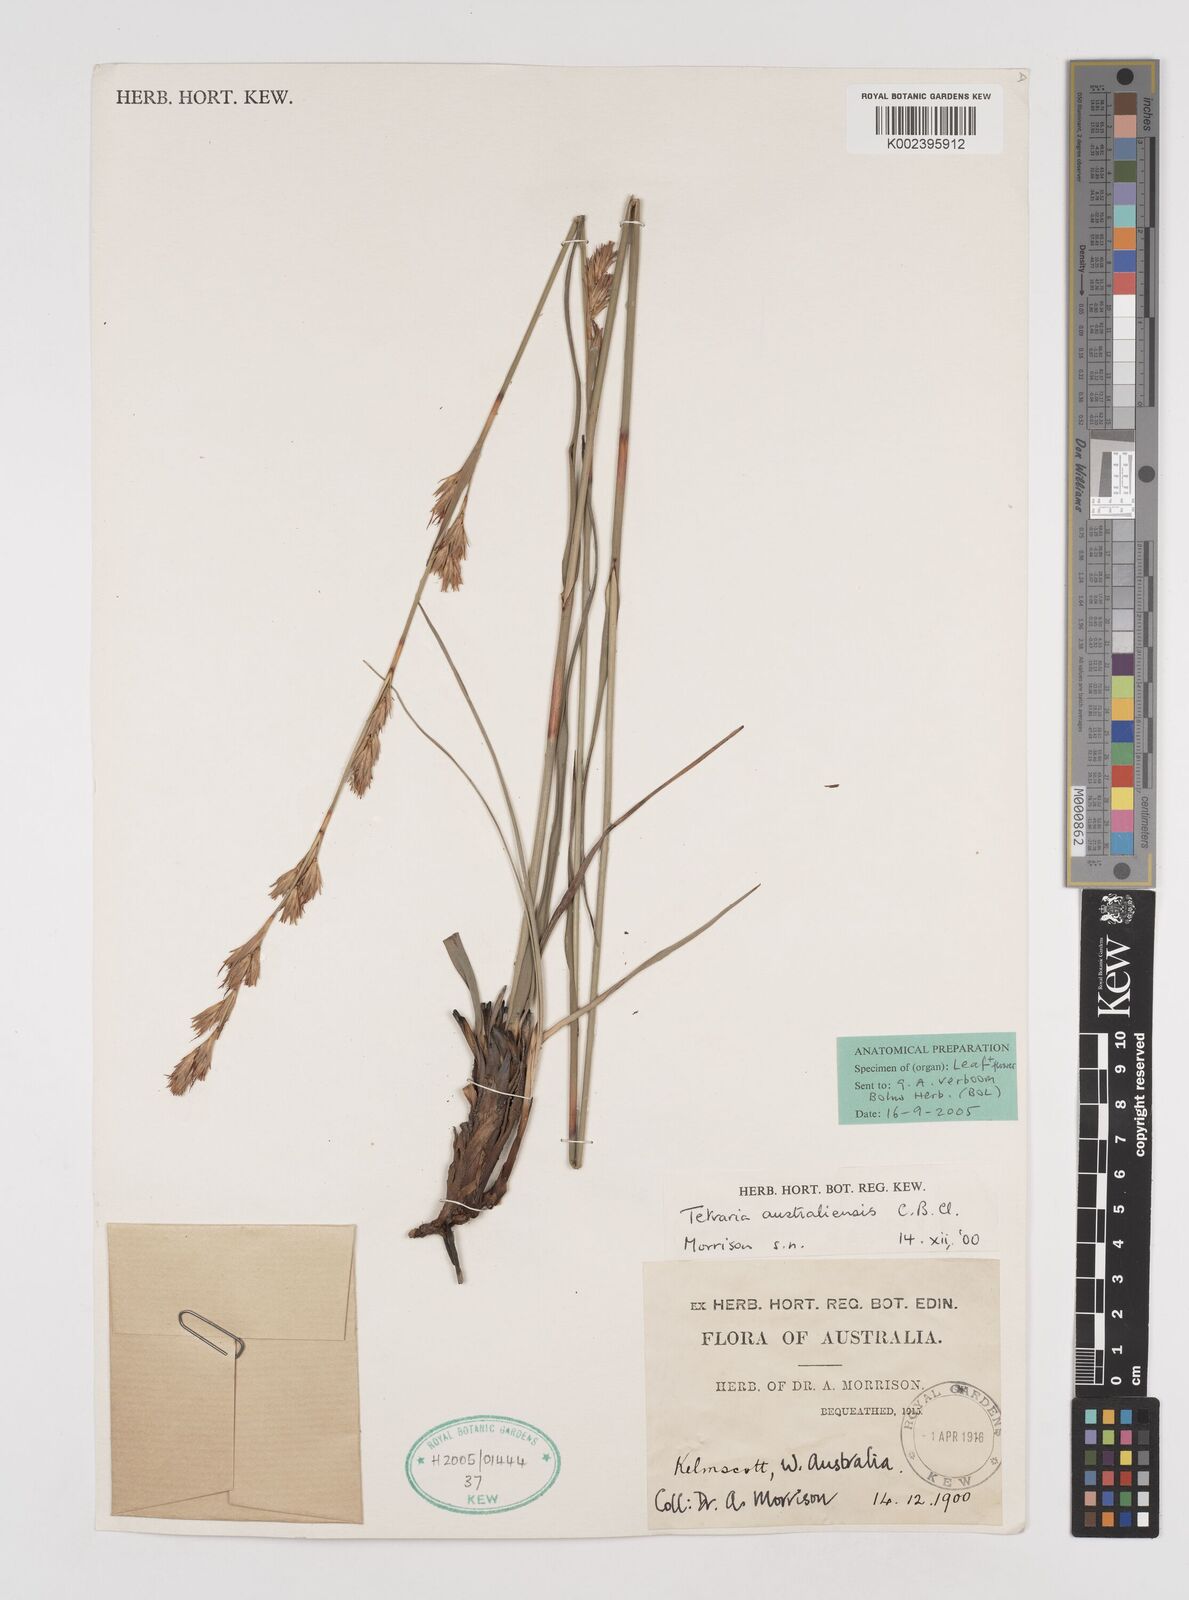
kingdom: Plantae
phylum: Tracheophyta
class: Liliopsida
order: Poales
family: Cyperaceae
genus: Tetraria
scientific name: Tetraria australiensis
